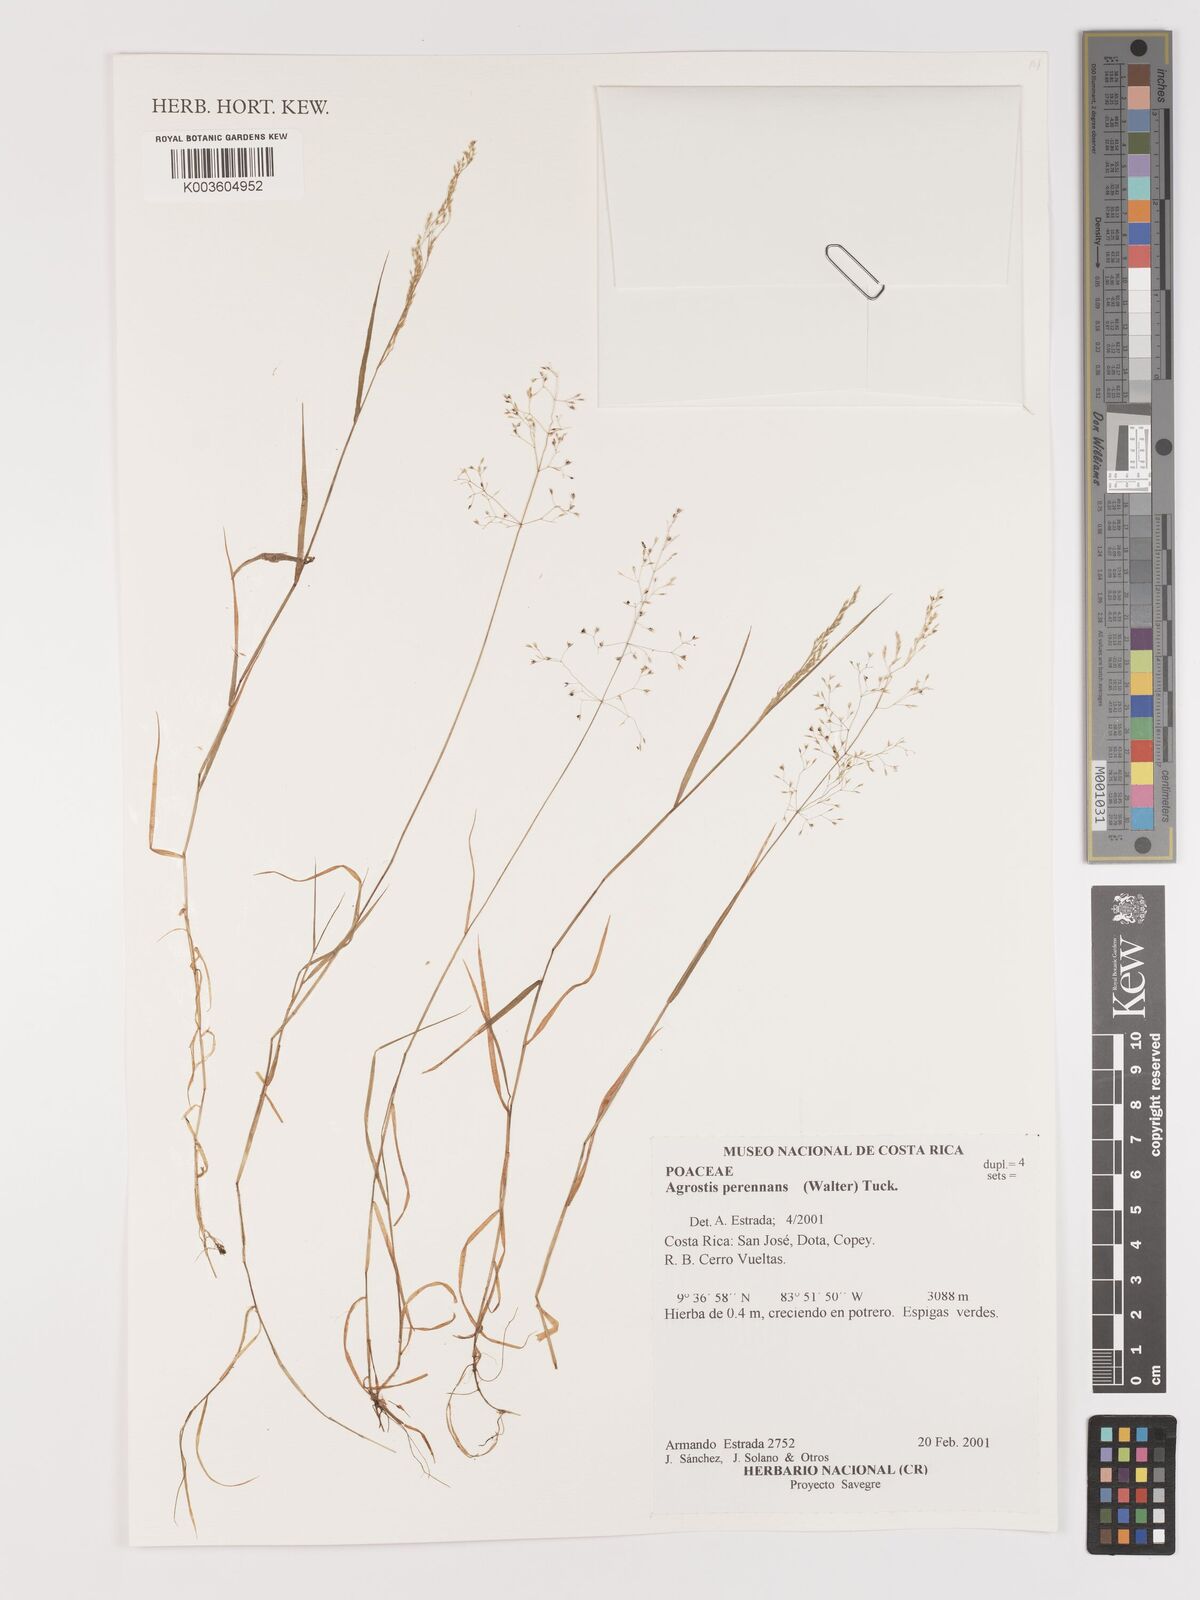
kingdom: Plantae
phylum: Tracheophyta
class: Liliopsida
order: Poales
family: Poaceae
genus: Agrostis
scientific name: Agrostis perennans
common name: Autumn bent
